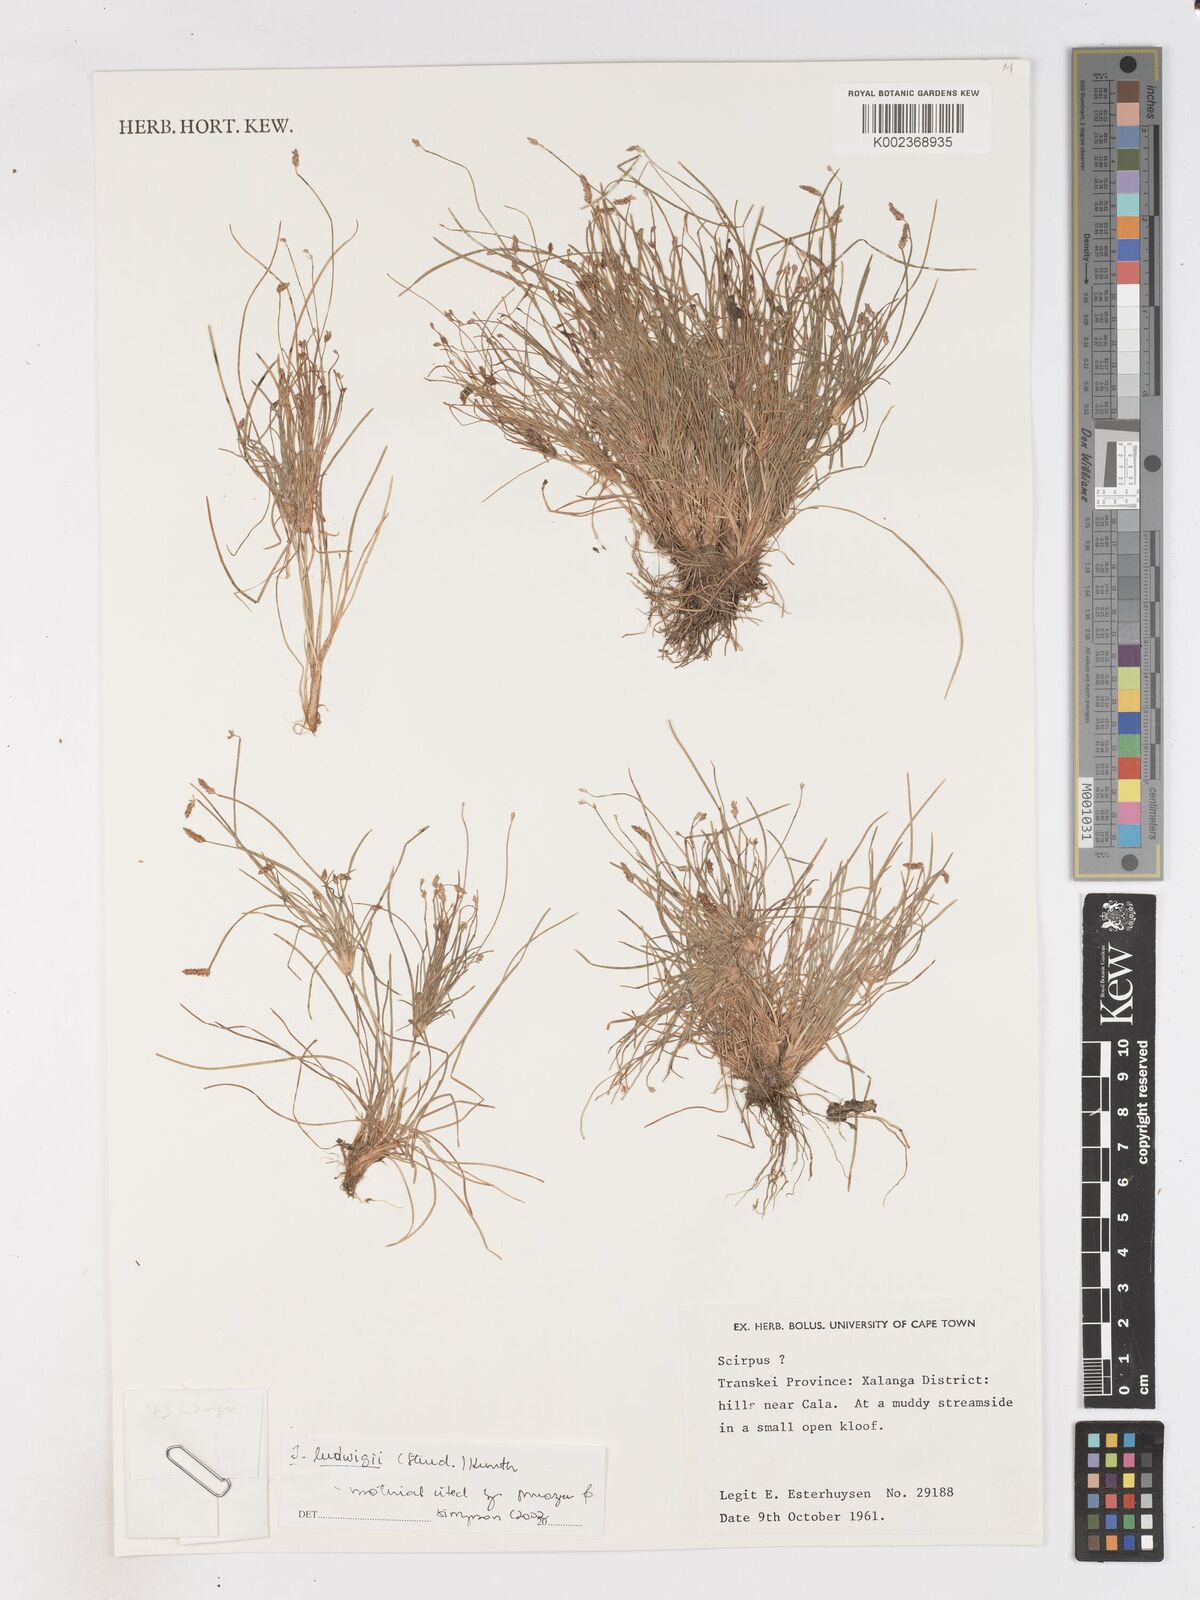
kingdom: Plantae
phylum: Tracheophyta
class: Liliopsida
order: Poales
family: Cyperaceae
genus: Isolepis
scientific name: Isolepis ludwigii
